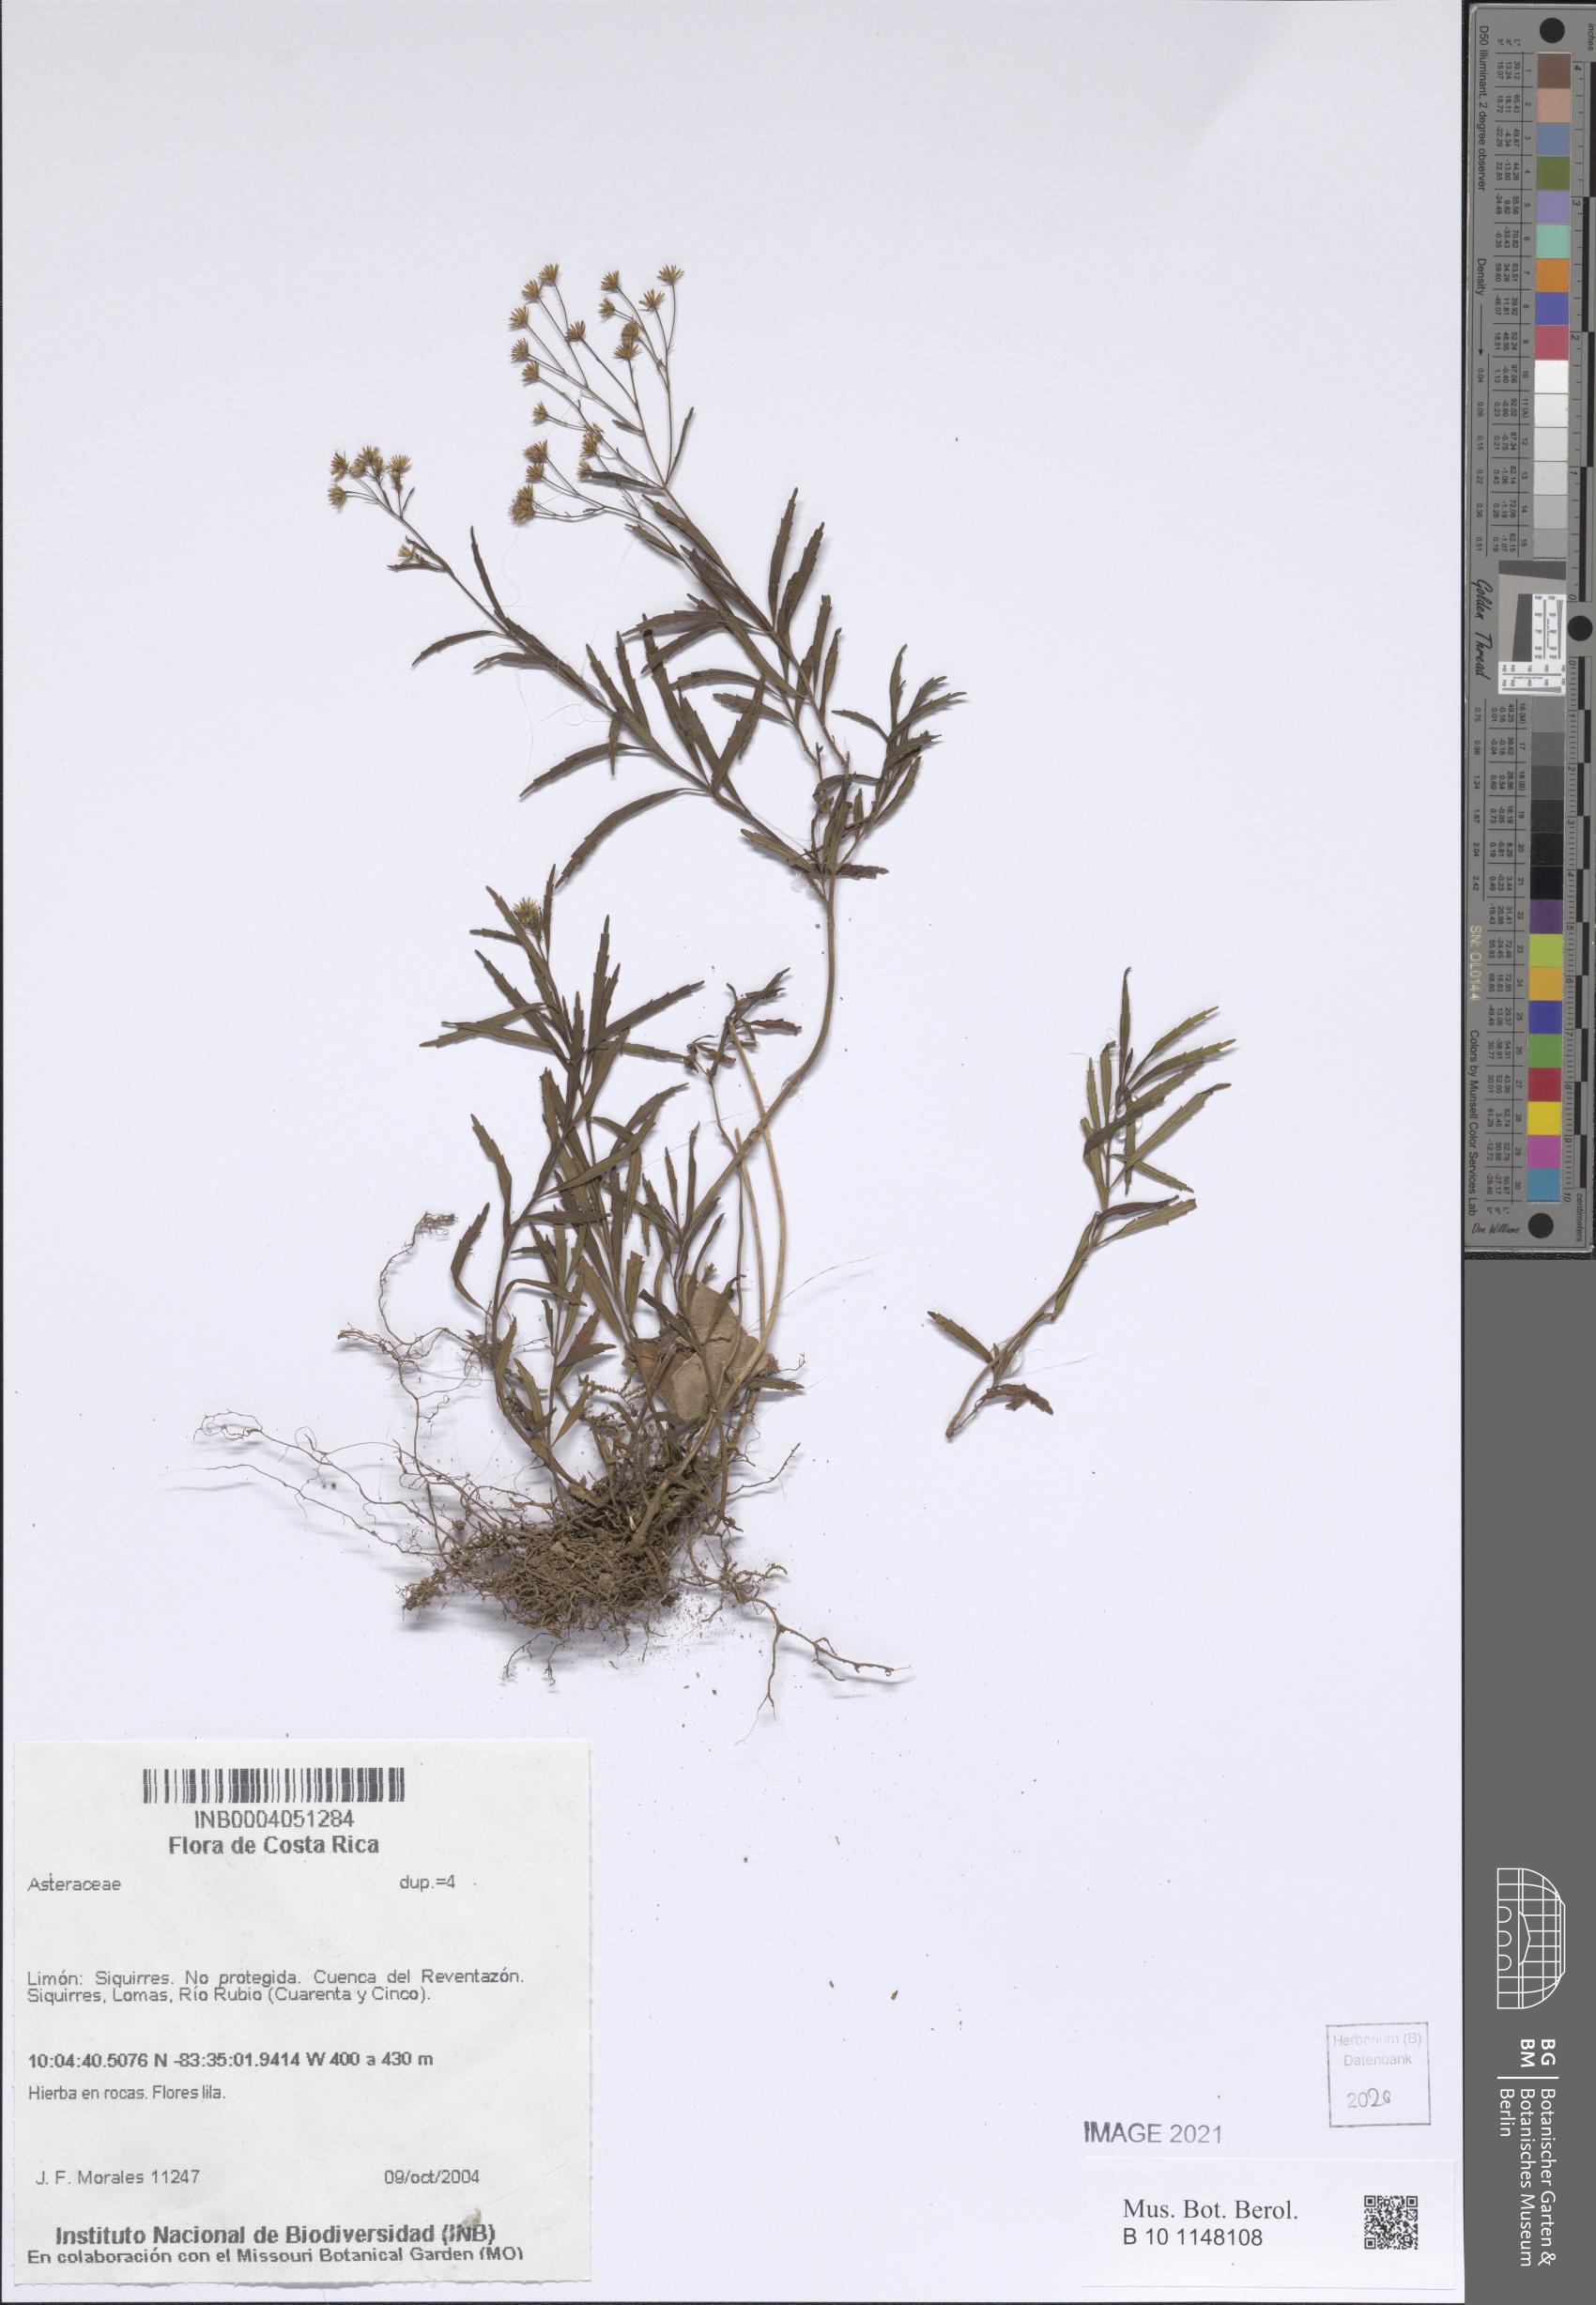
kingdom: Plantae
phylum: Tracheophyta
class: Magnoliopsida
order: Asterales
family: Asteraceae
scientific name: Asteraceae
